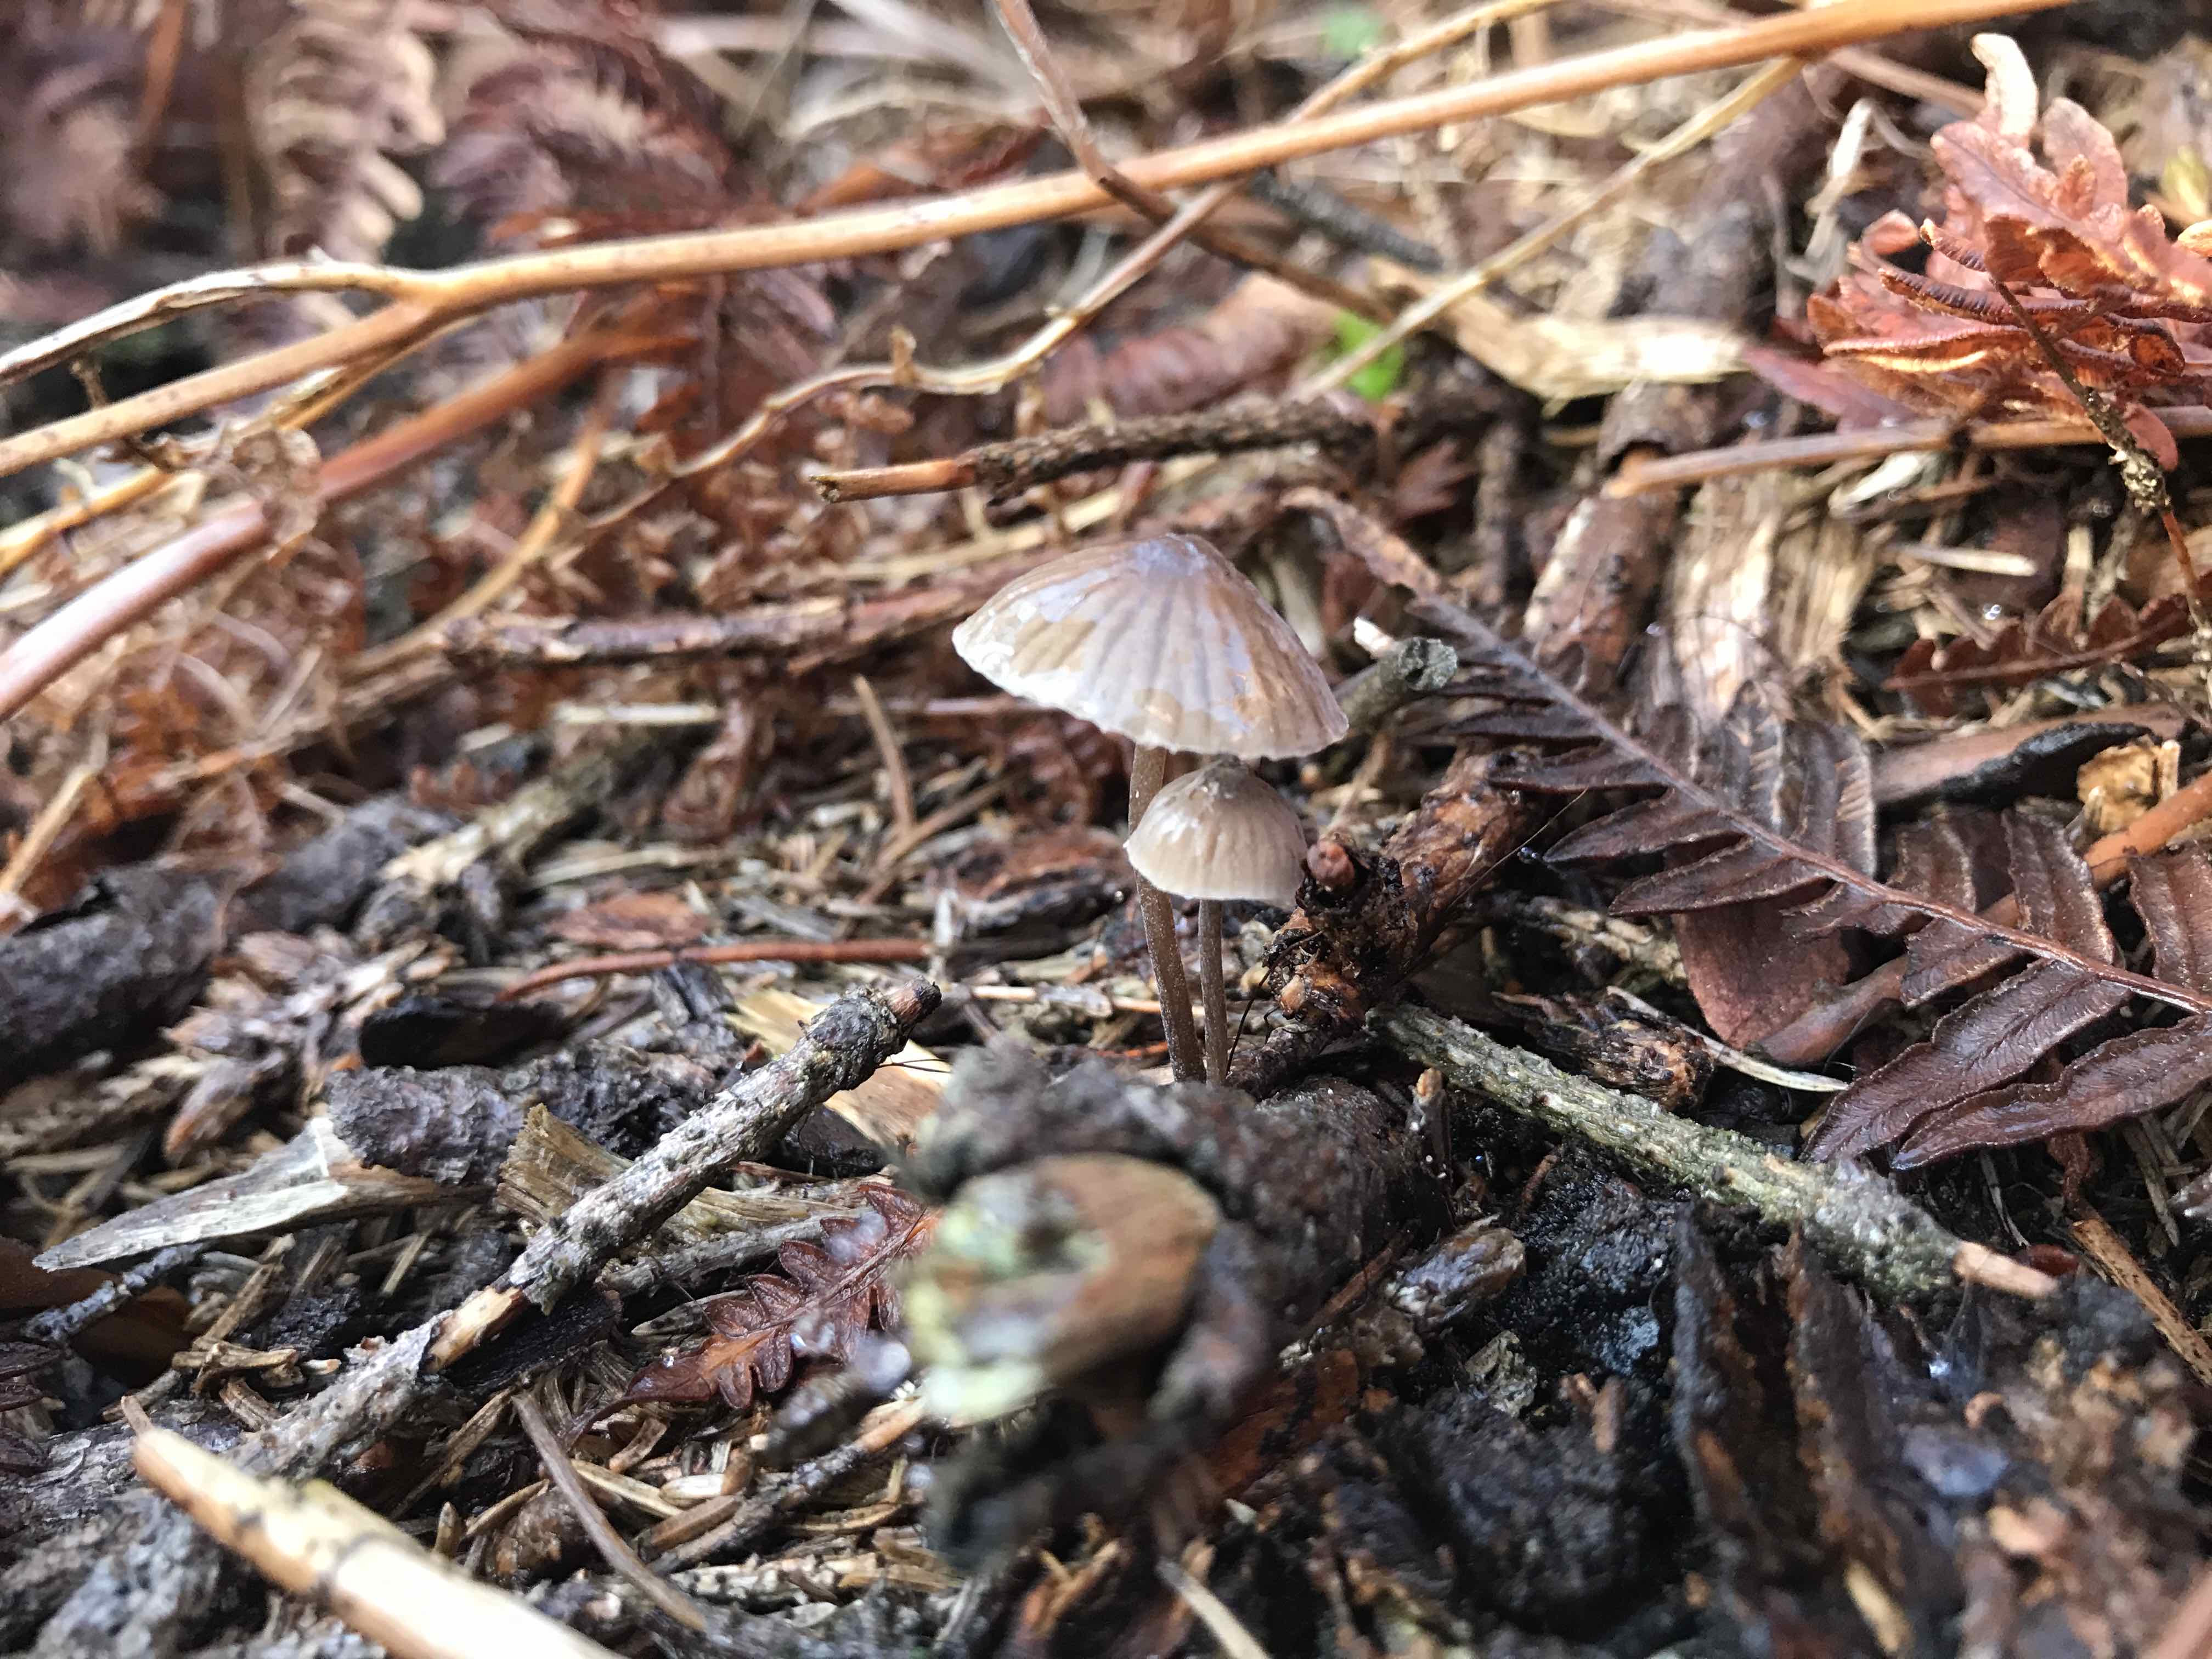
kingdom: Fungi
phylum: Basidiomycota
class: Agaricomycetes
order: Agaricales
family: Mycenaceae
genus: Mycena
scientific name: Mycena galopus
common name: hvidmælket huesvamp
